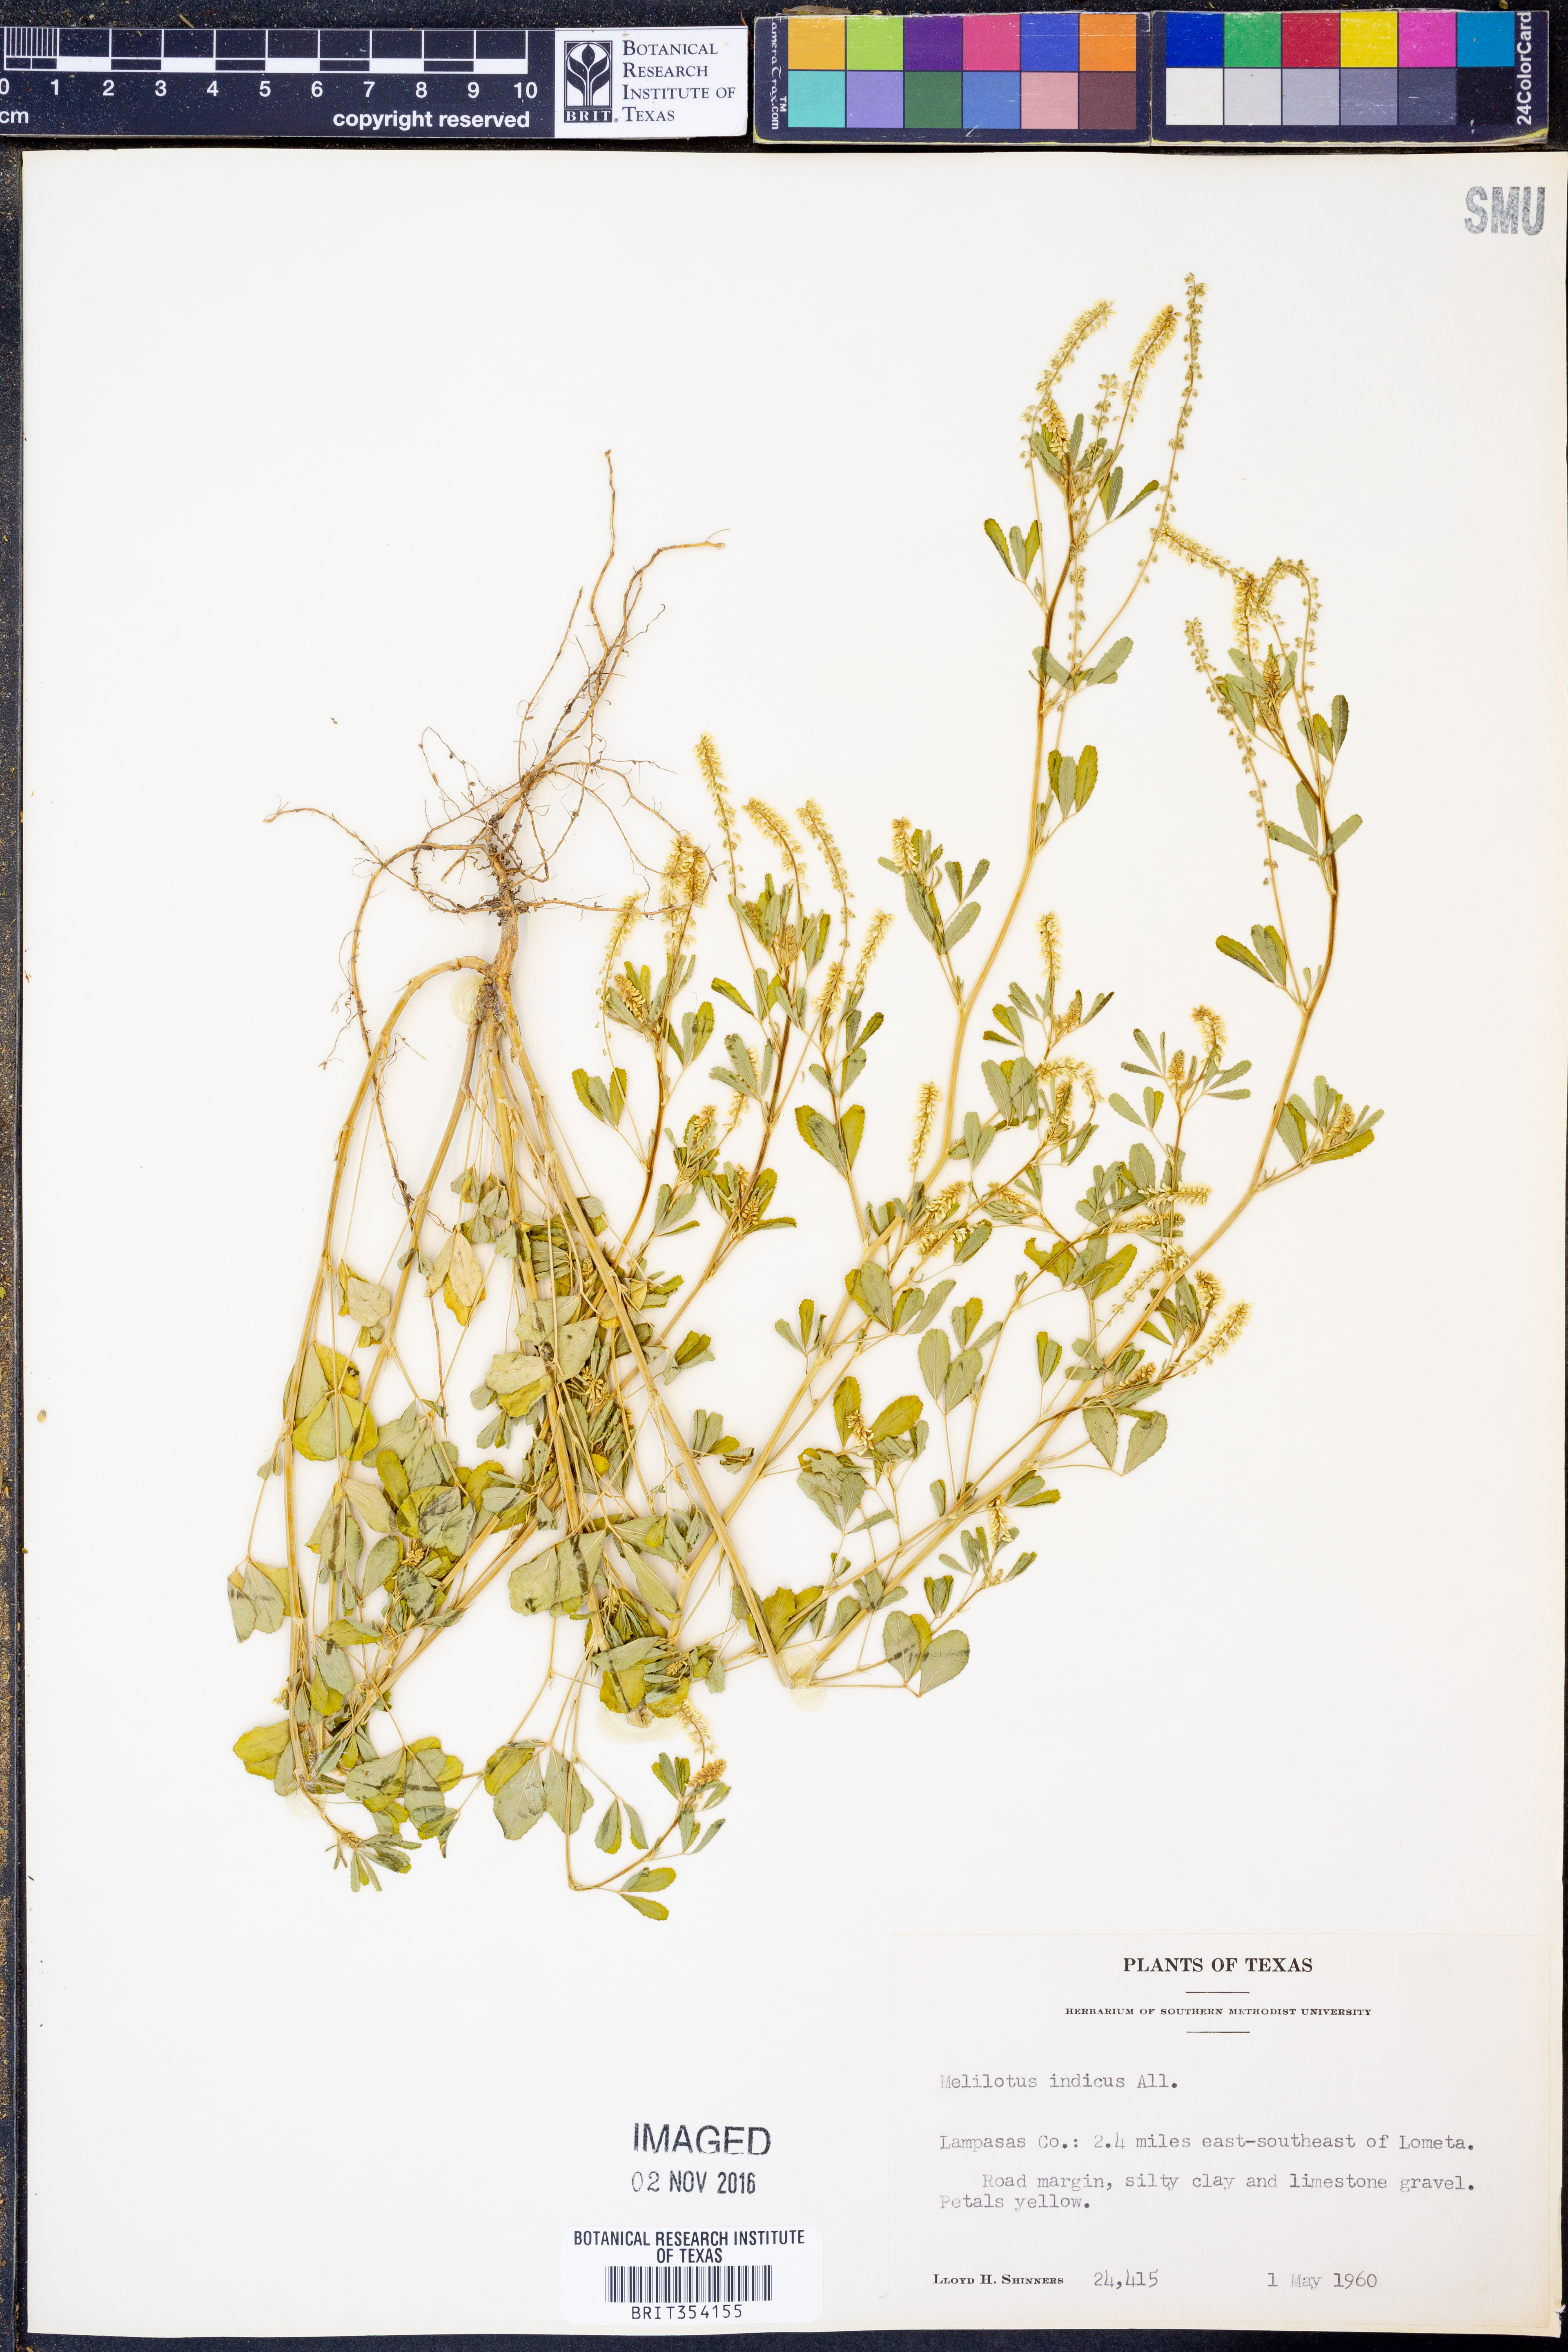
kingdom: Plantae
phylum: Tracheophyta
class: Magnoliopsida
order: Fabales
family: Fabaceae
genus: Melilotus
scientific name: Melilotus indicus
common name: Small melilot
